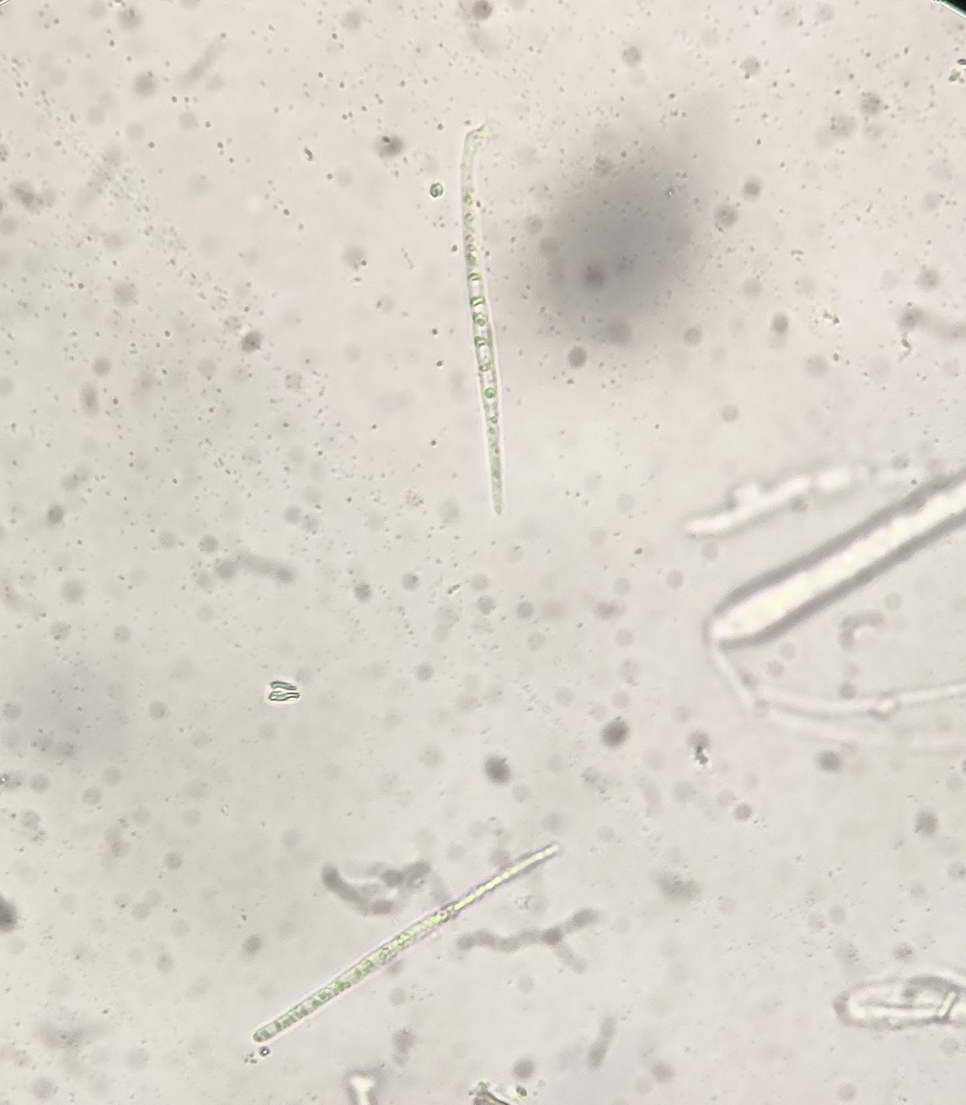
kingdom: Fungi
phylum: Ascomycota
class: Leotiomycetes
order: Helotiales
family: Arachnopezizaceae
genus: Arachnopeziza
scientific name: Arachnopeziza aurata
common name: bleggul spindskive
